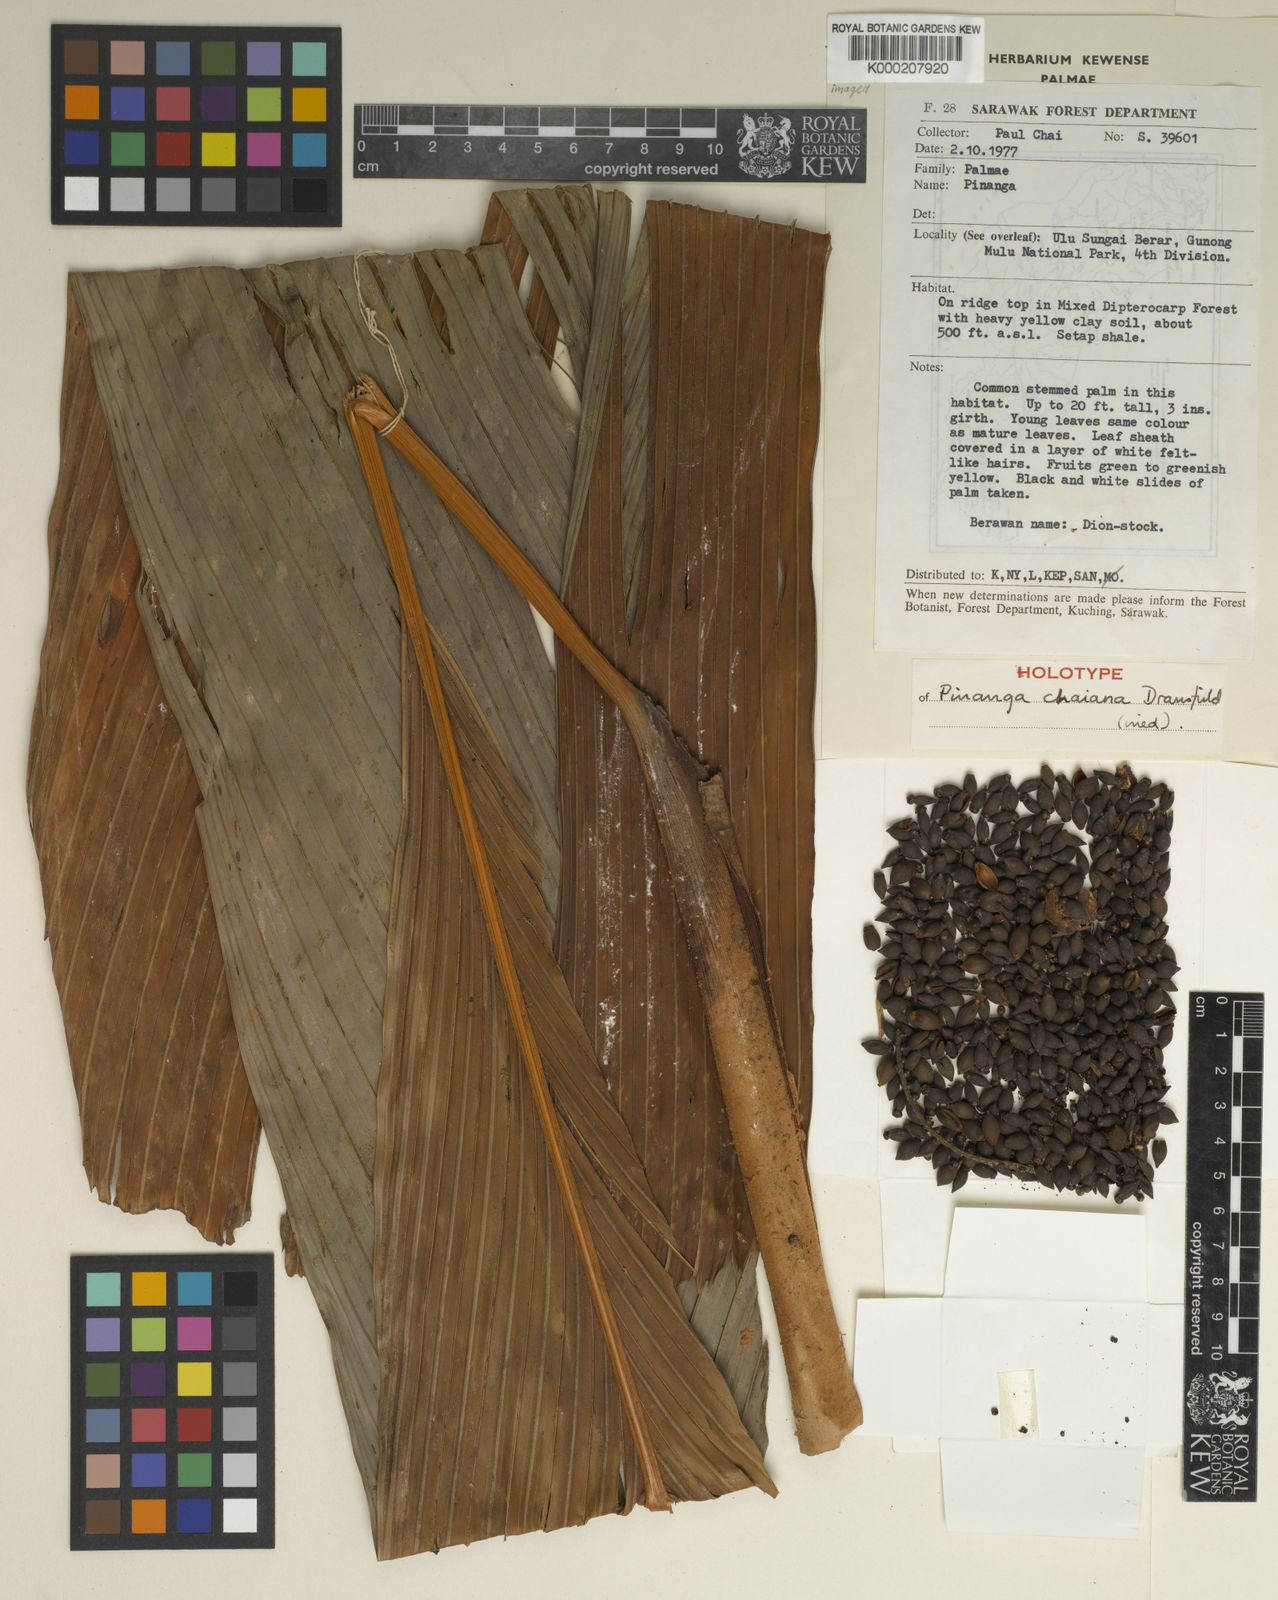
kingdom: Plantae
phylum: Tracheophyta
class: Liliopsida
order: Arecales
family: Arecaceae
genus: Pinanga
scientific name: Pinanga chaiana
